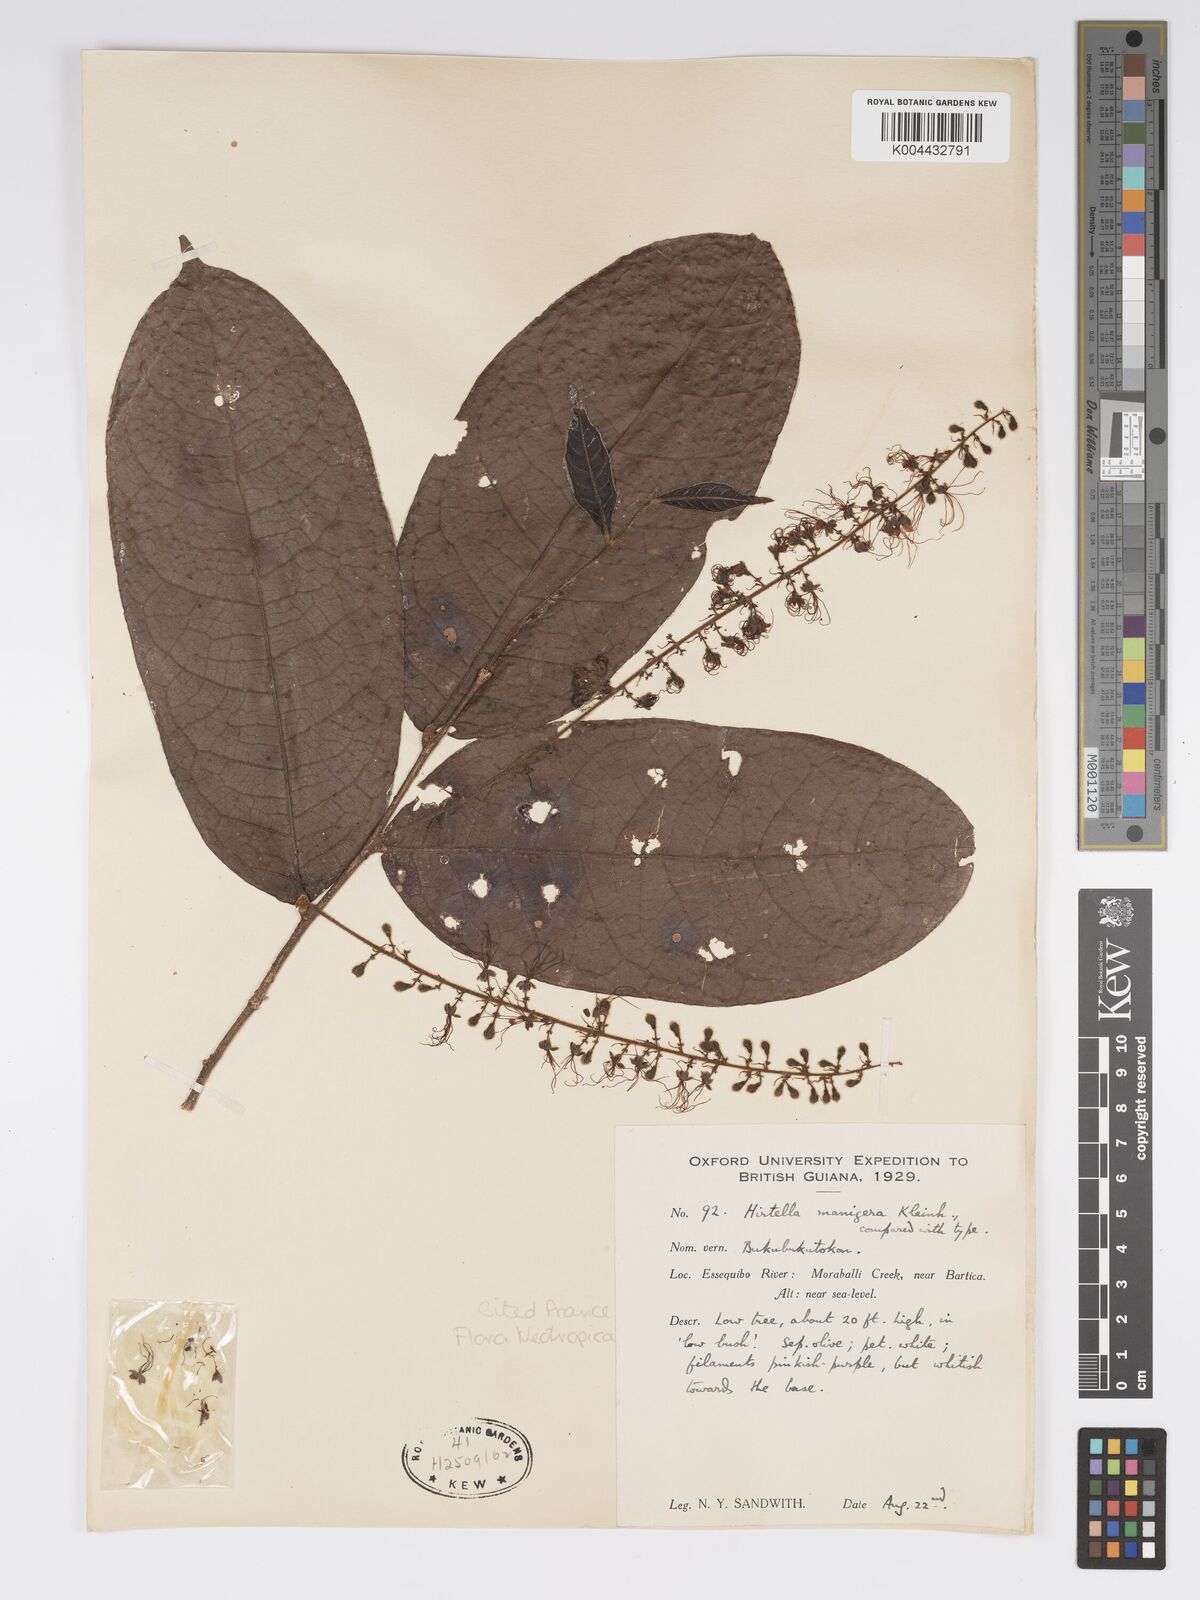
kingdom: Plantae
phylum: Tracheophyta
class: Magnoliopsida
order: Malpighiales
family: Chrysobalanaceae
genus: Hirtella
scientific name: Hirtella silicea
